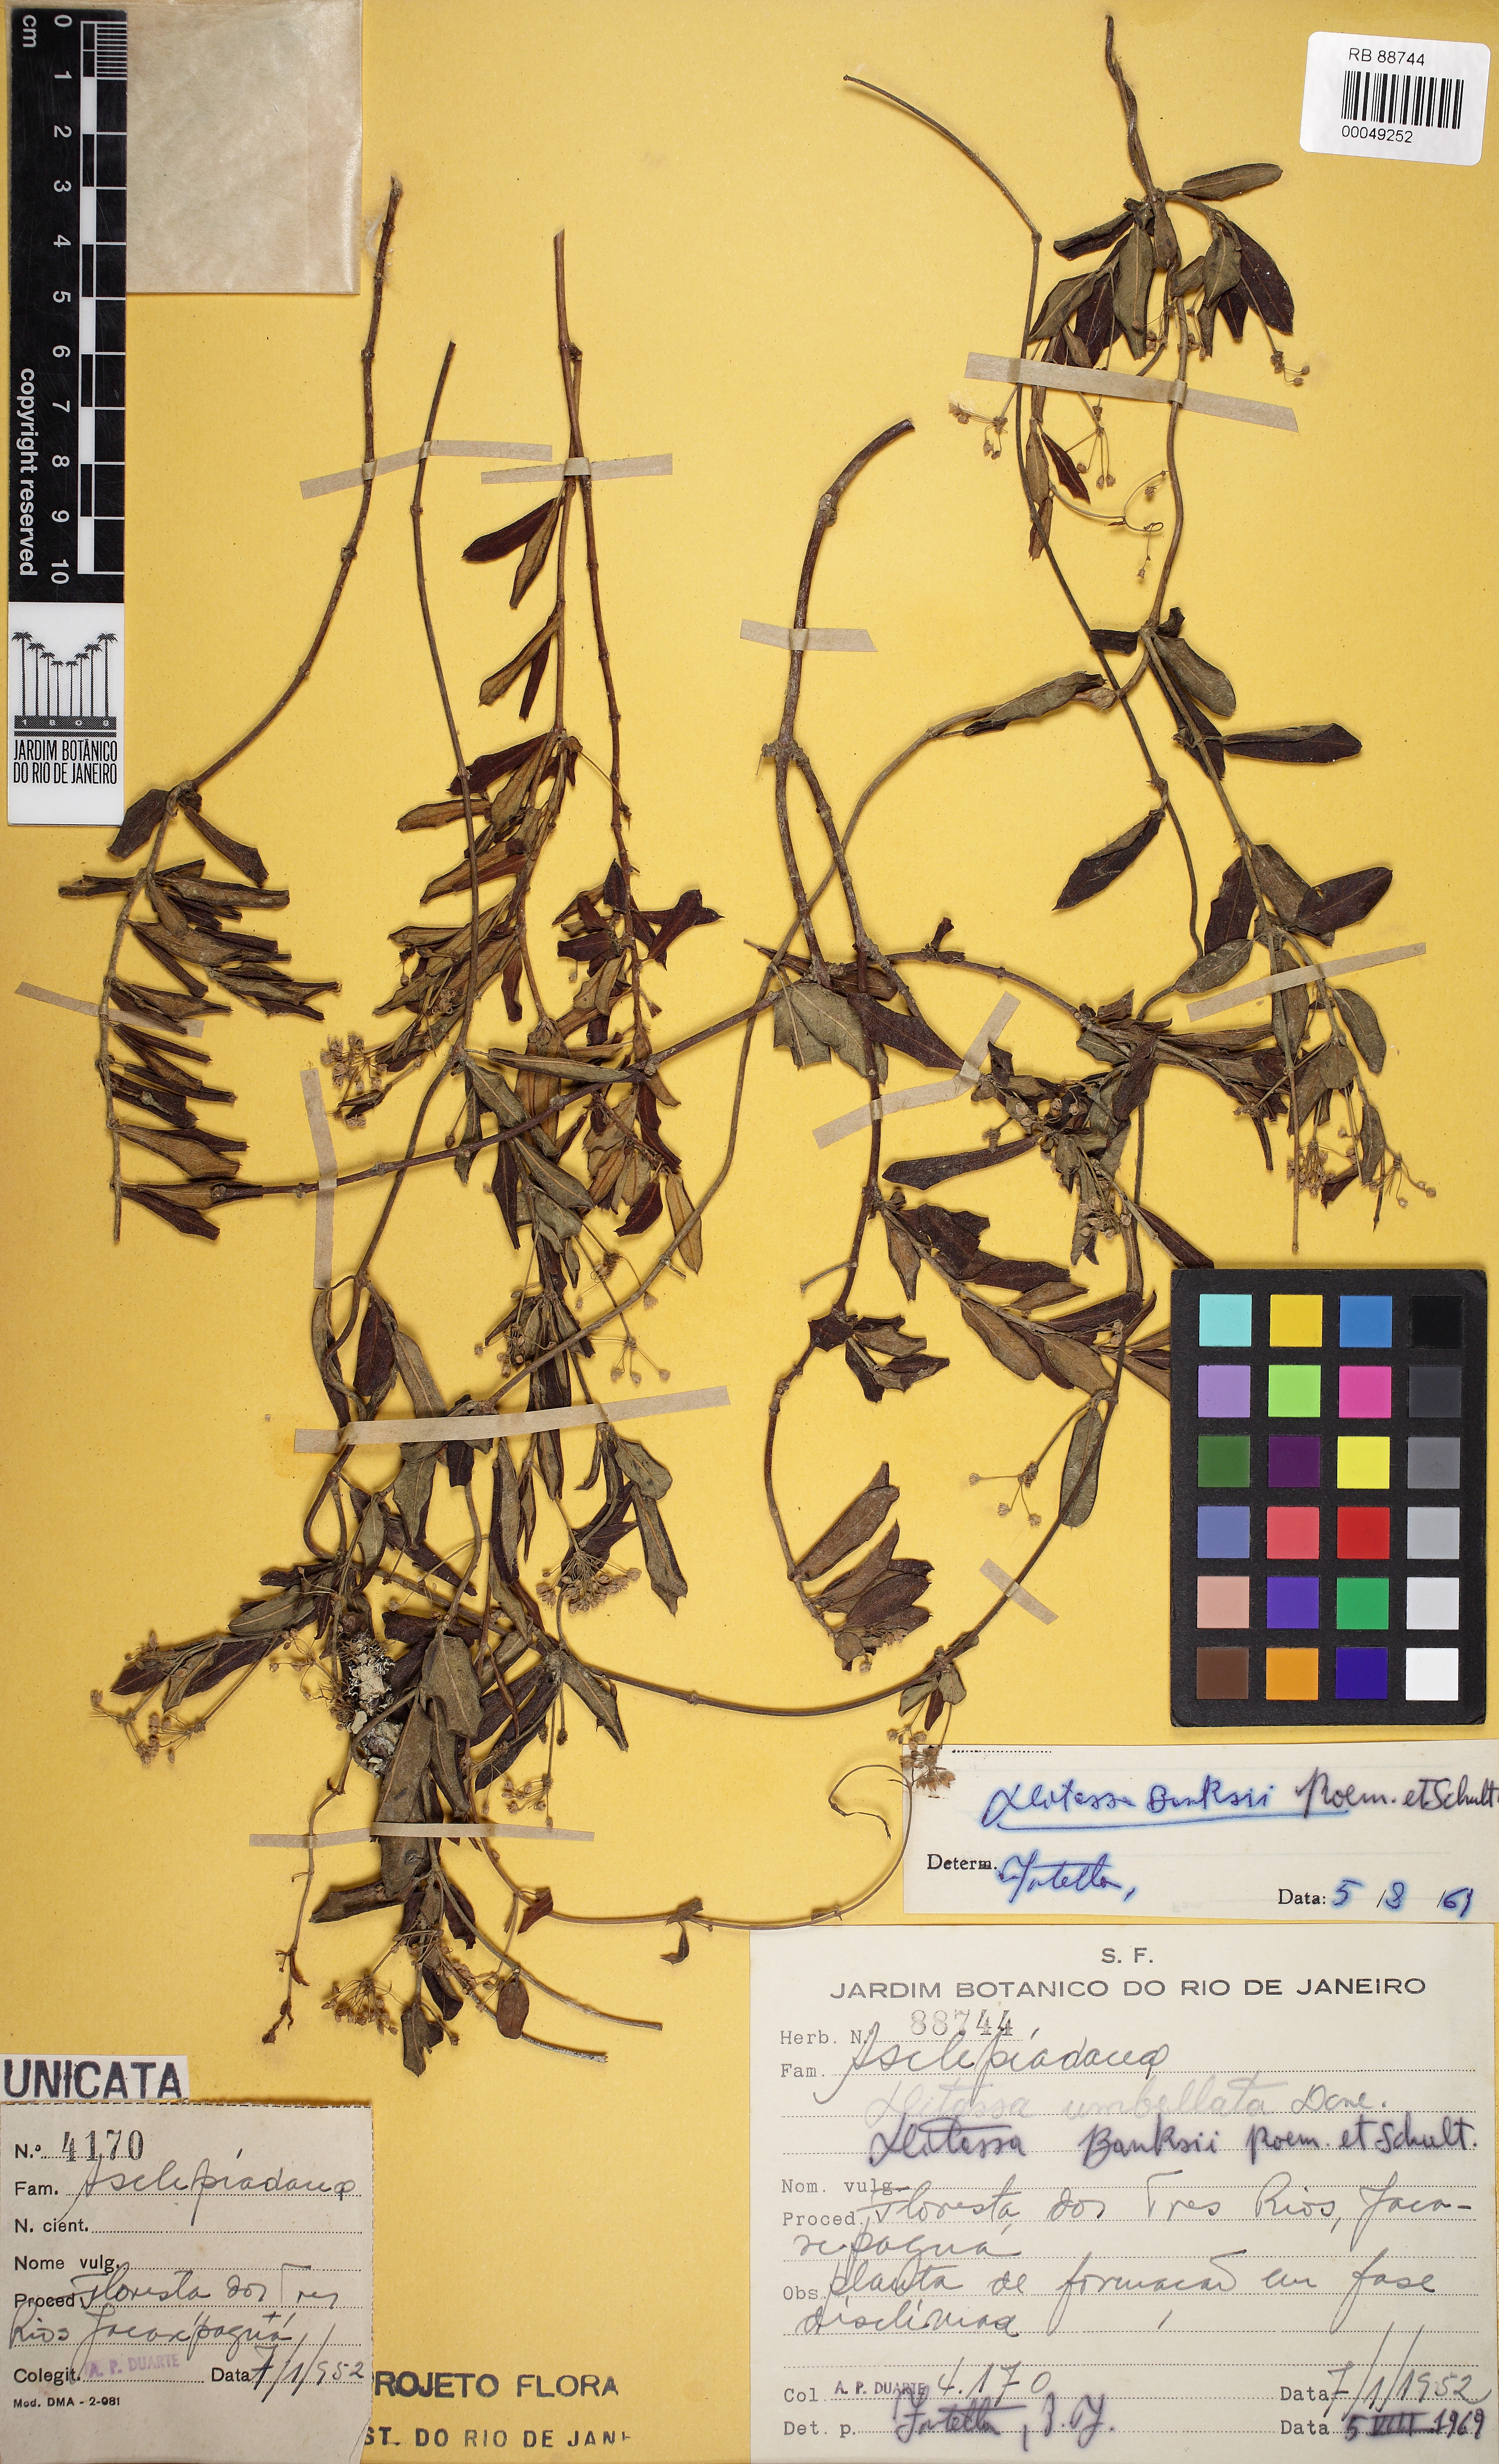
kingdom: Plantae
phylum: Tracheophyta
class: Magnoliopsida
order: Gentianales
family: Apocynaceae
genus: Ditassa
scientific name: Ditassa banksii
